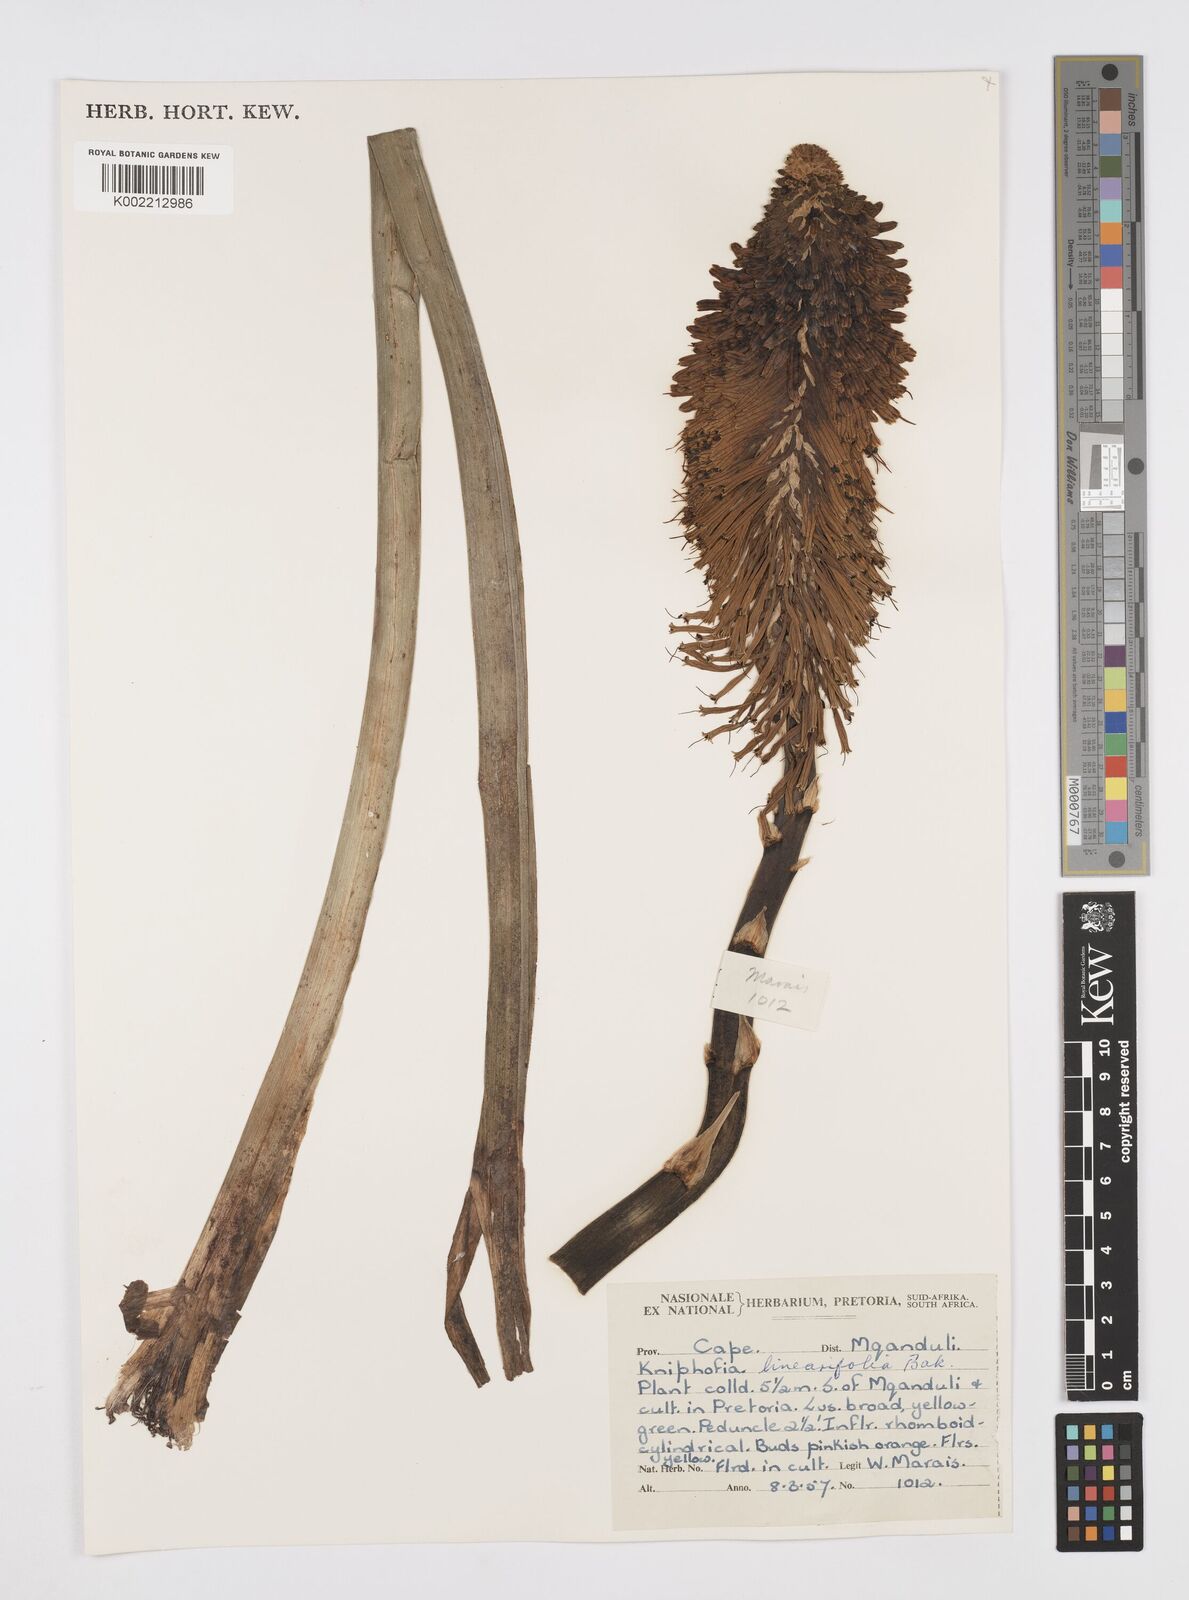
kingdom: Plantae
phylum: Tracheophyta
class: Liliopsida
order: Asparagales
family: Asphodelaceae
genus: Kniphofia
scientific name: Kniphofia linearifolia
